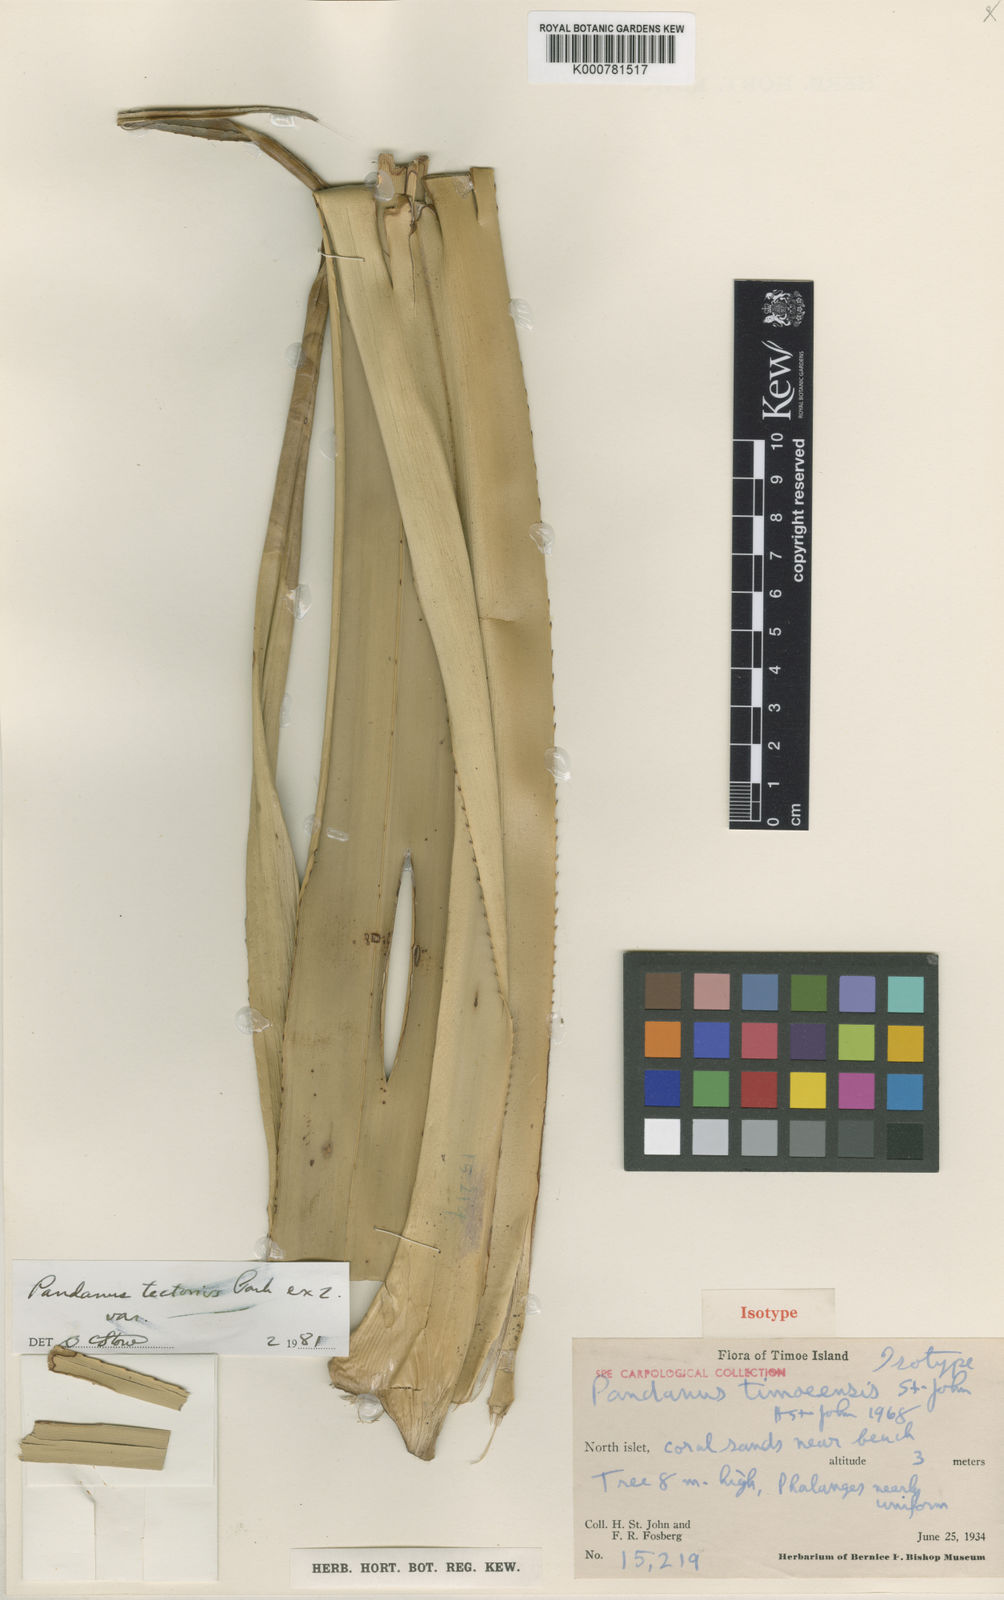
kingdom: Plantae
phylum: Tracheophyta
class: Liliopsida
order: Pandanales
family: Pandanaceae
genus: Pandanus
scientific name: Pandanus tectorius
